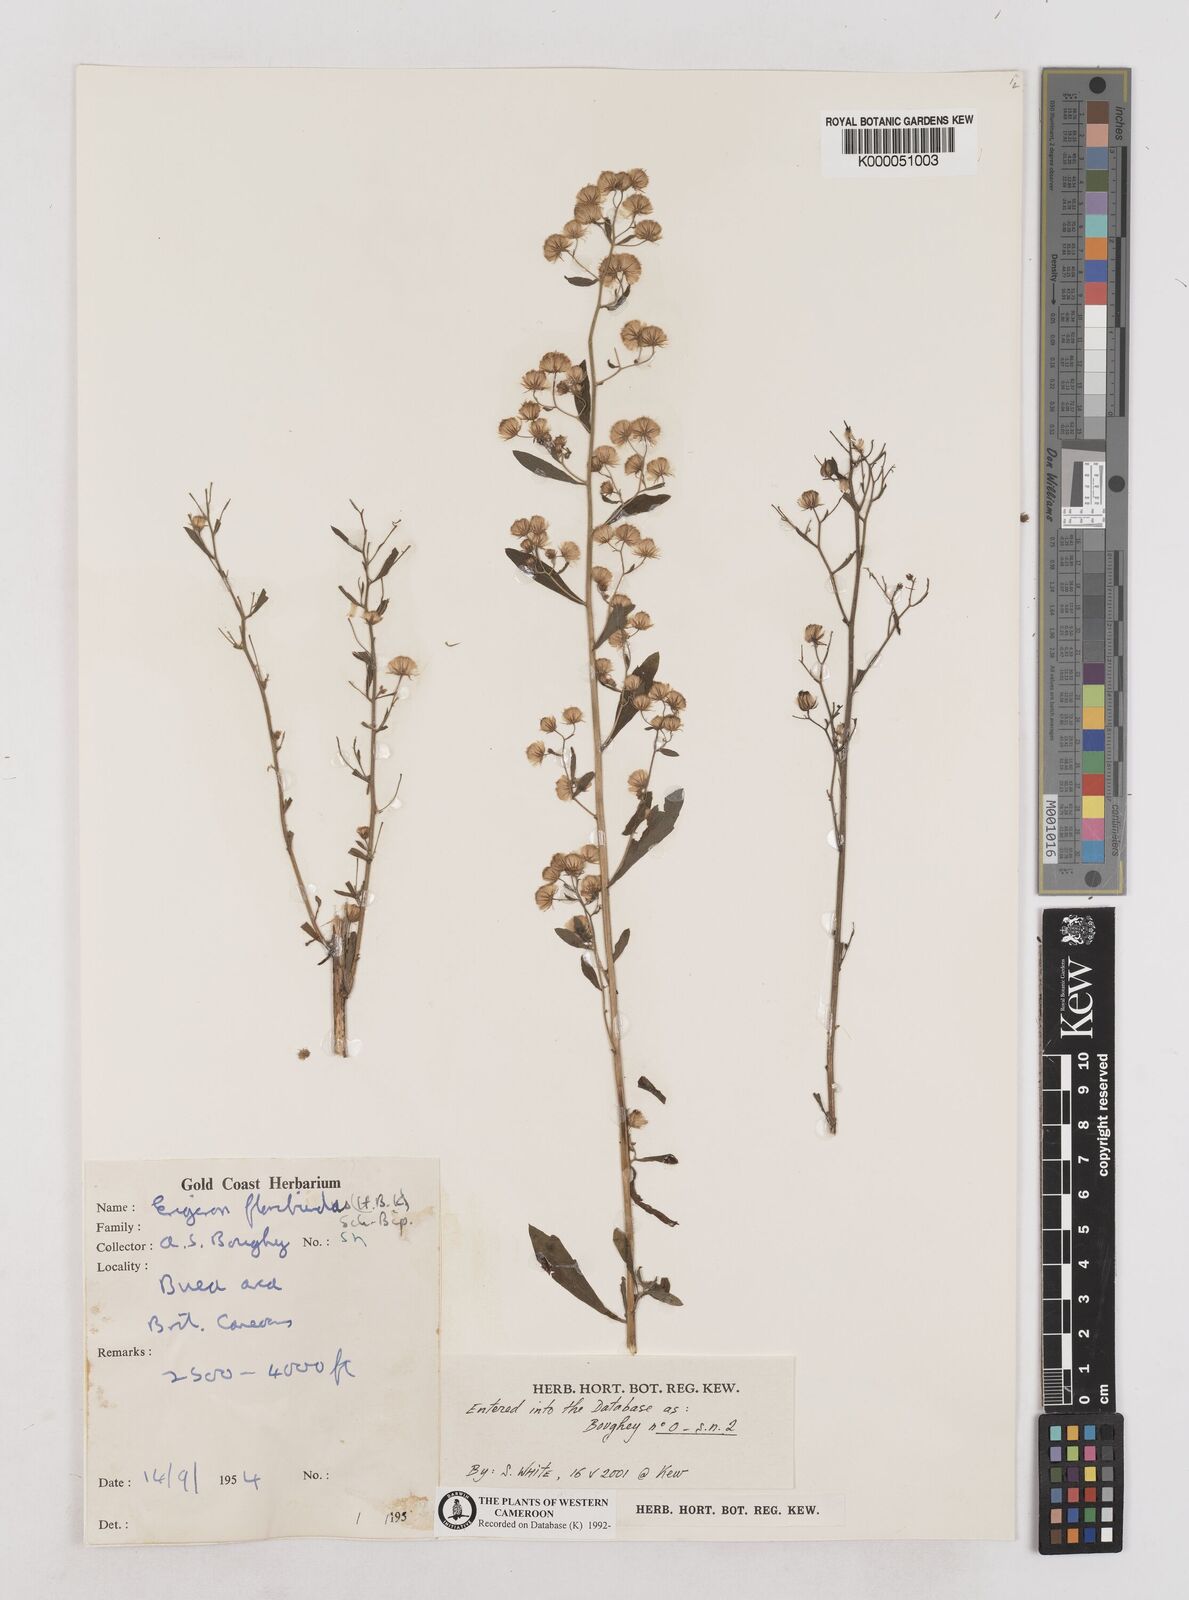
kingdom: Plantae
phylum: Tracheophyta
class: Magnoliopsida
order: Asterales
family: Asteraceae
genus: Erigeron
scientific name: Erigeron bonariensis
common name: Argentine fleabane
